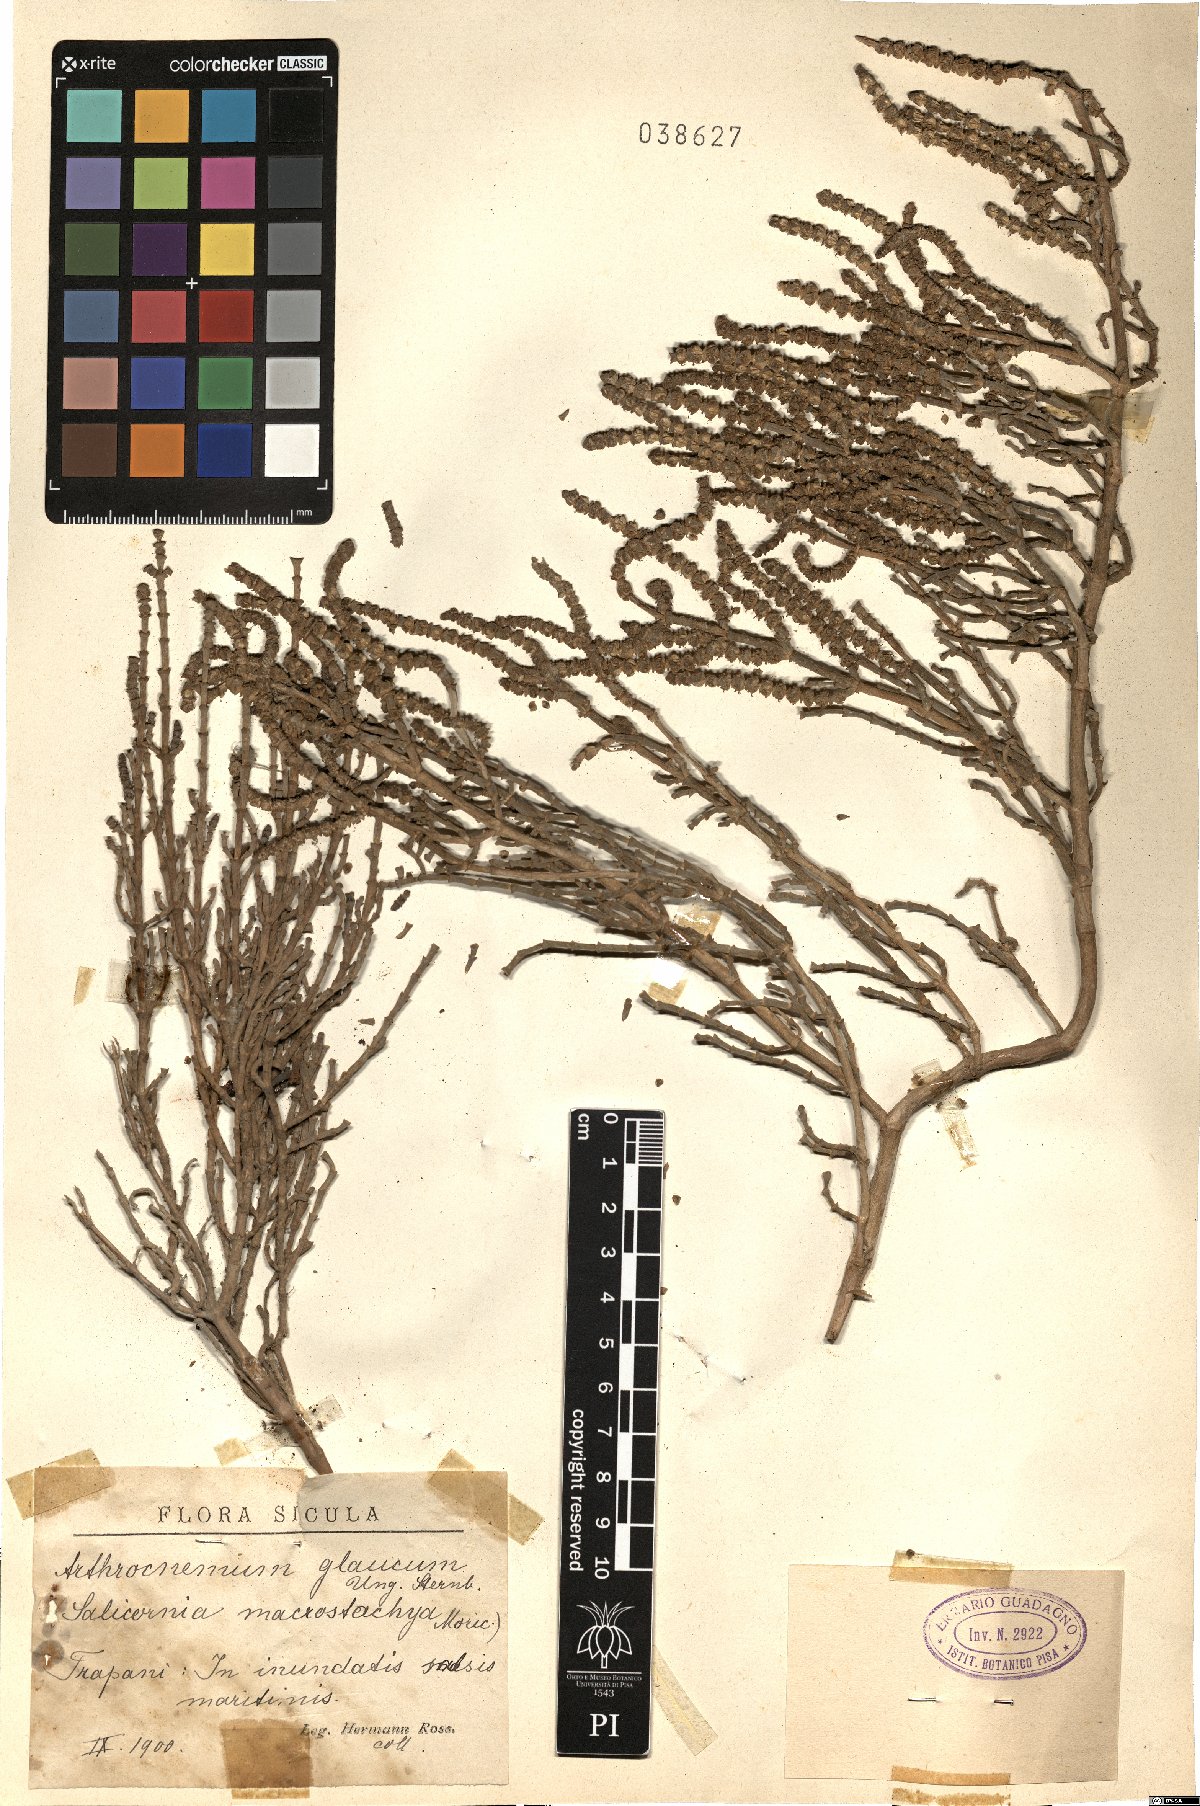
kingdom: Plantae
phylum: Tracheophyta
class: Magnoliopsida
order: Caryophyllales
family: Amaranthaceae
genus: Arthrocaulon
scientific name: Arthrocaulon macrostachyum
